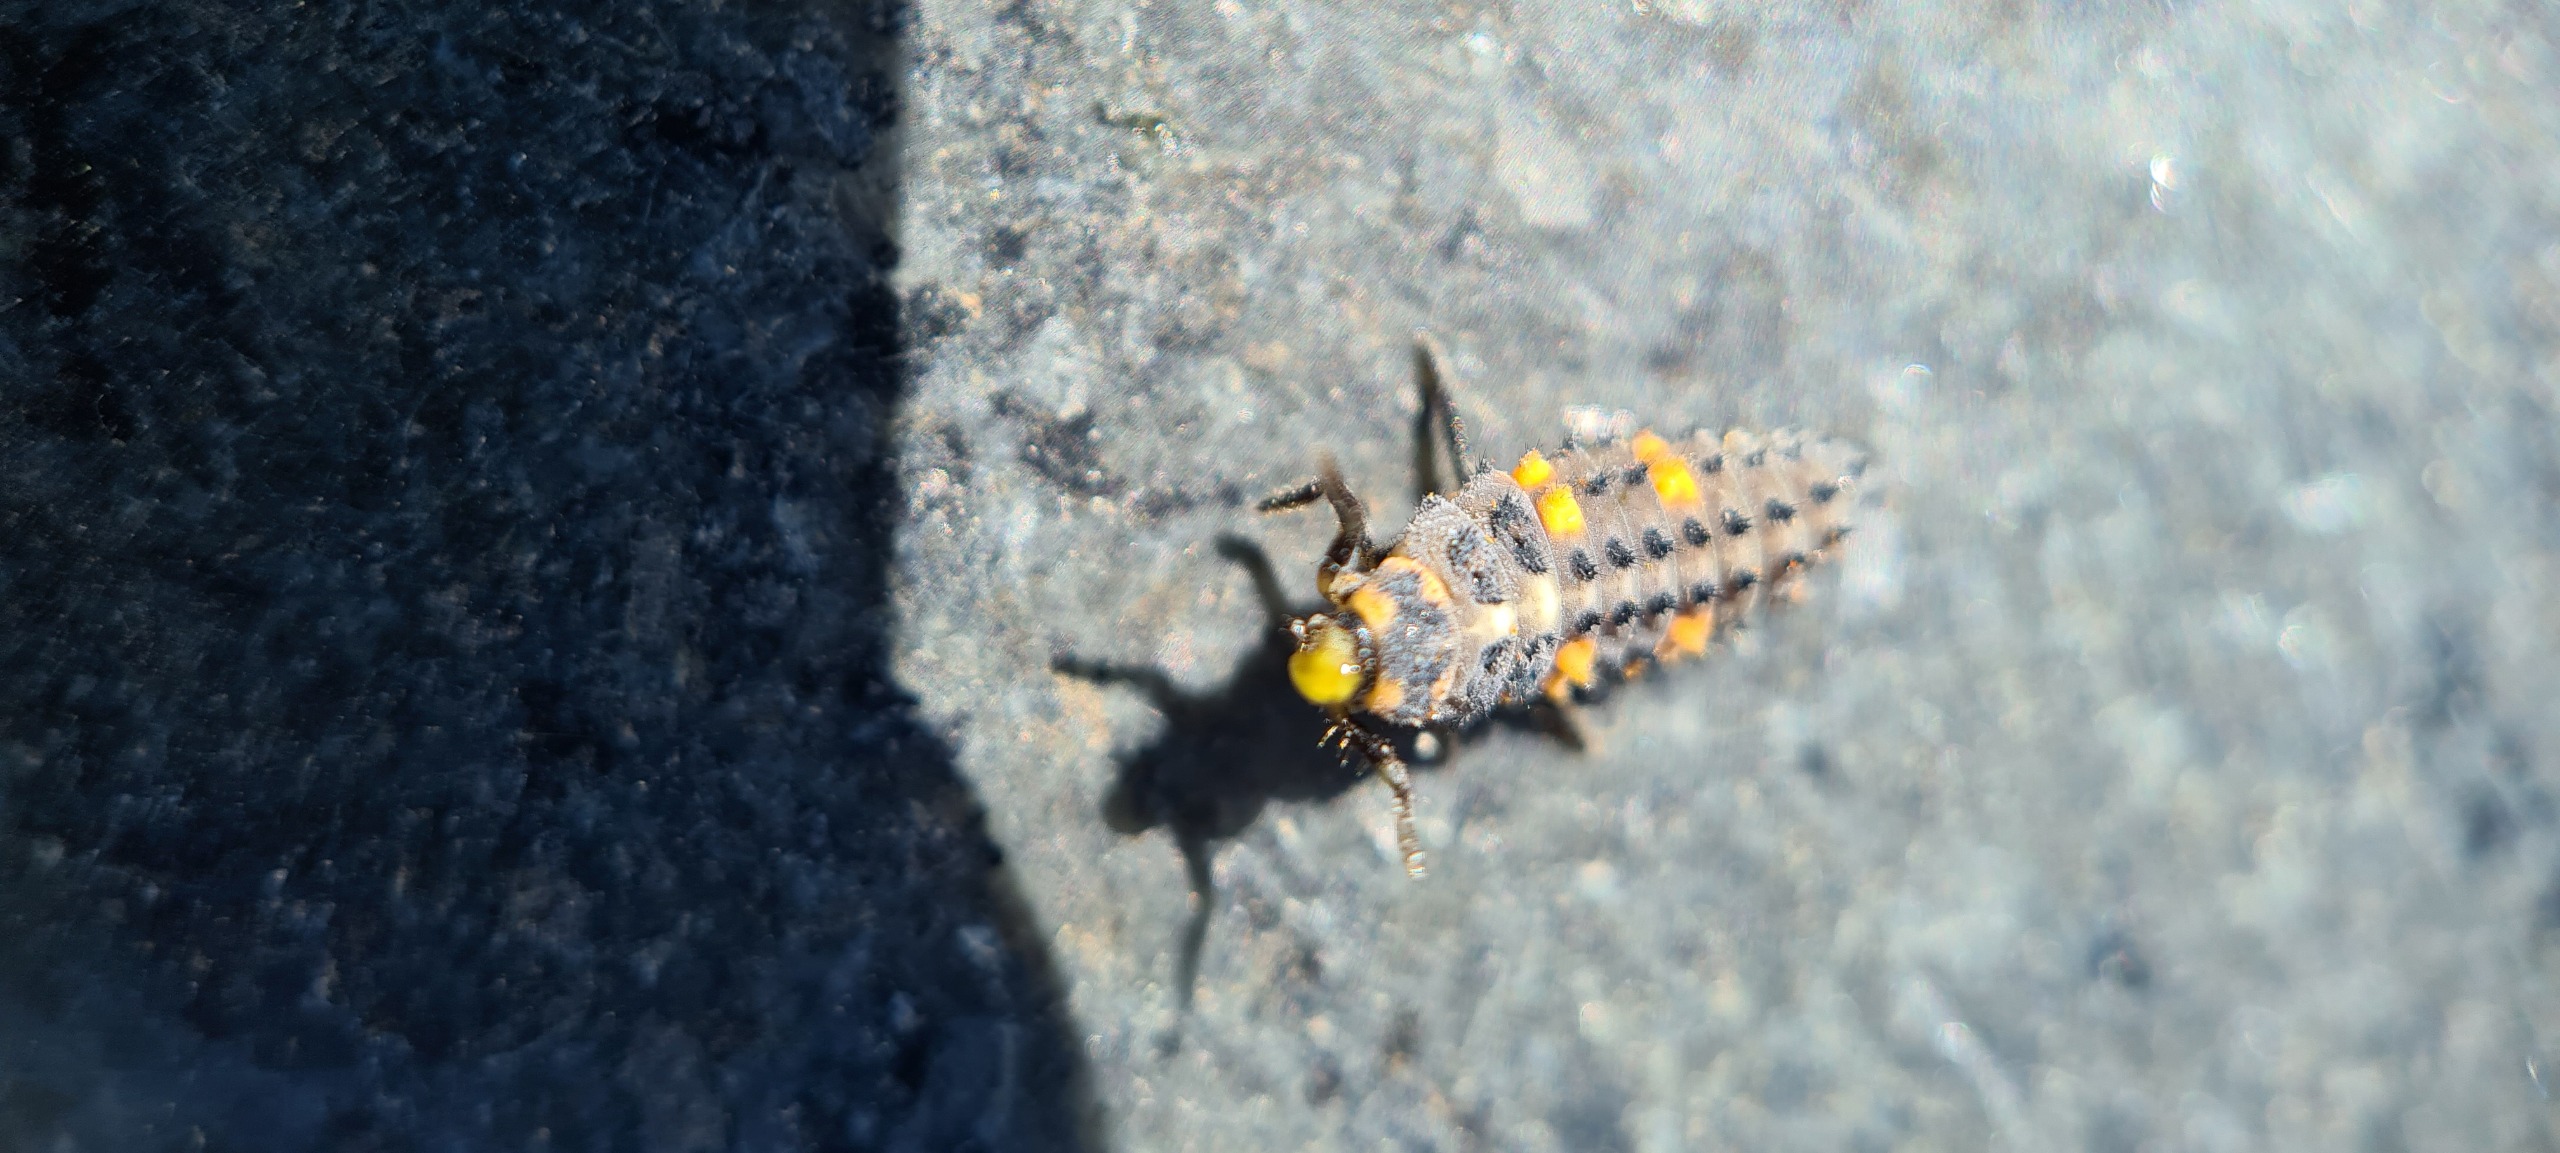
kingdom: Animalia
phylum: Arthropoda
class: Insecta
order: Coleoptera
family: Coccinellidae
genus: Coccinella
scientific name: Coccinella septempunctata
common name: Syvplettet mariehøne
